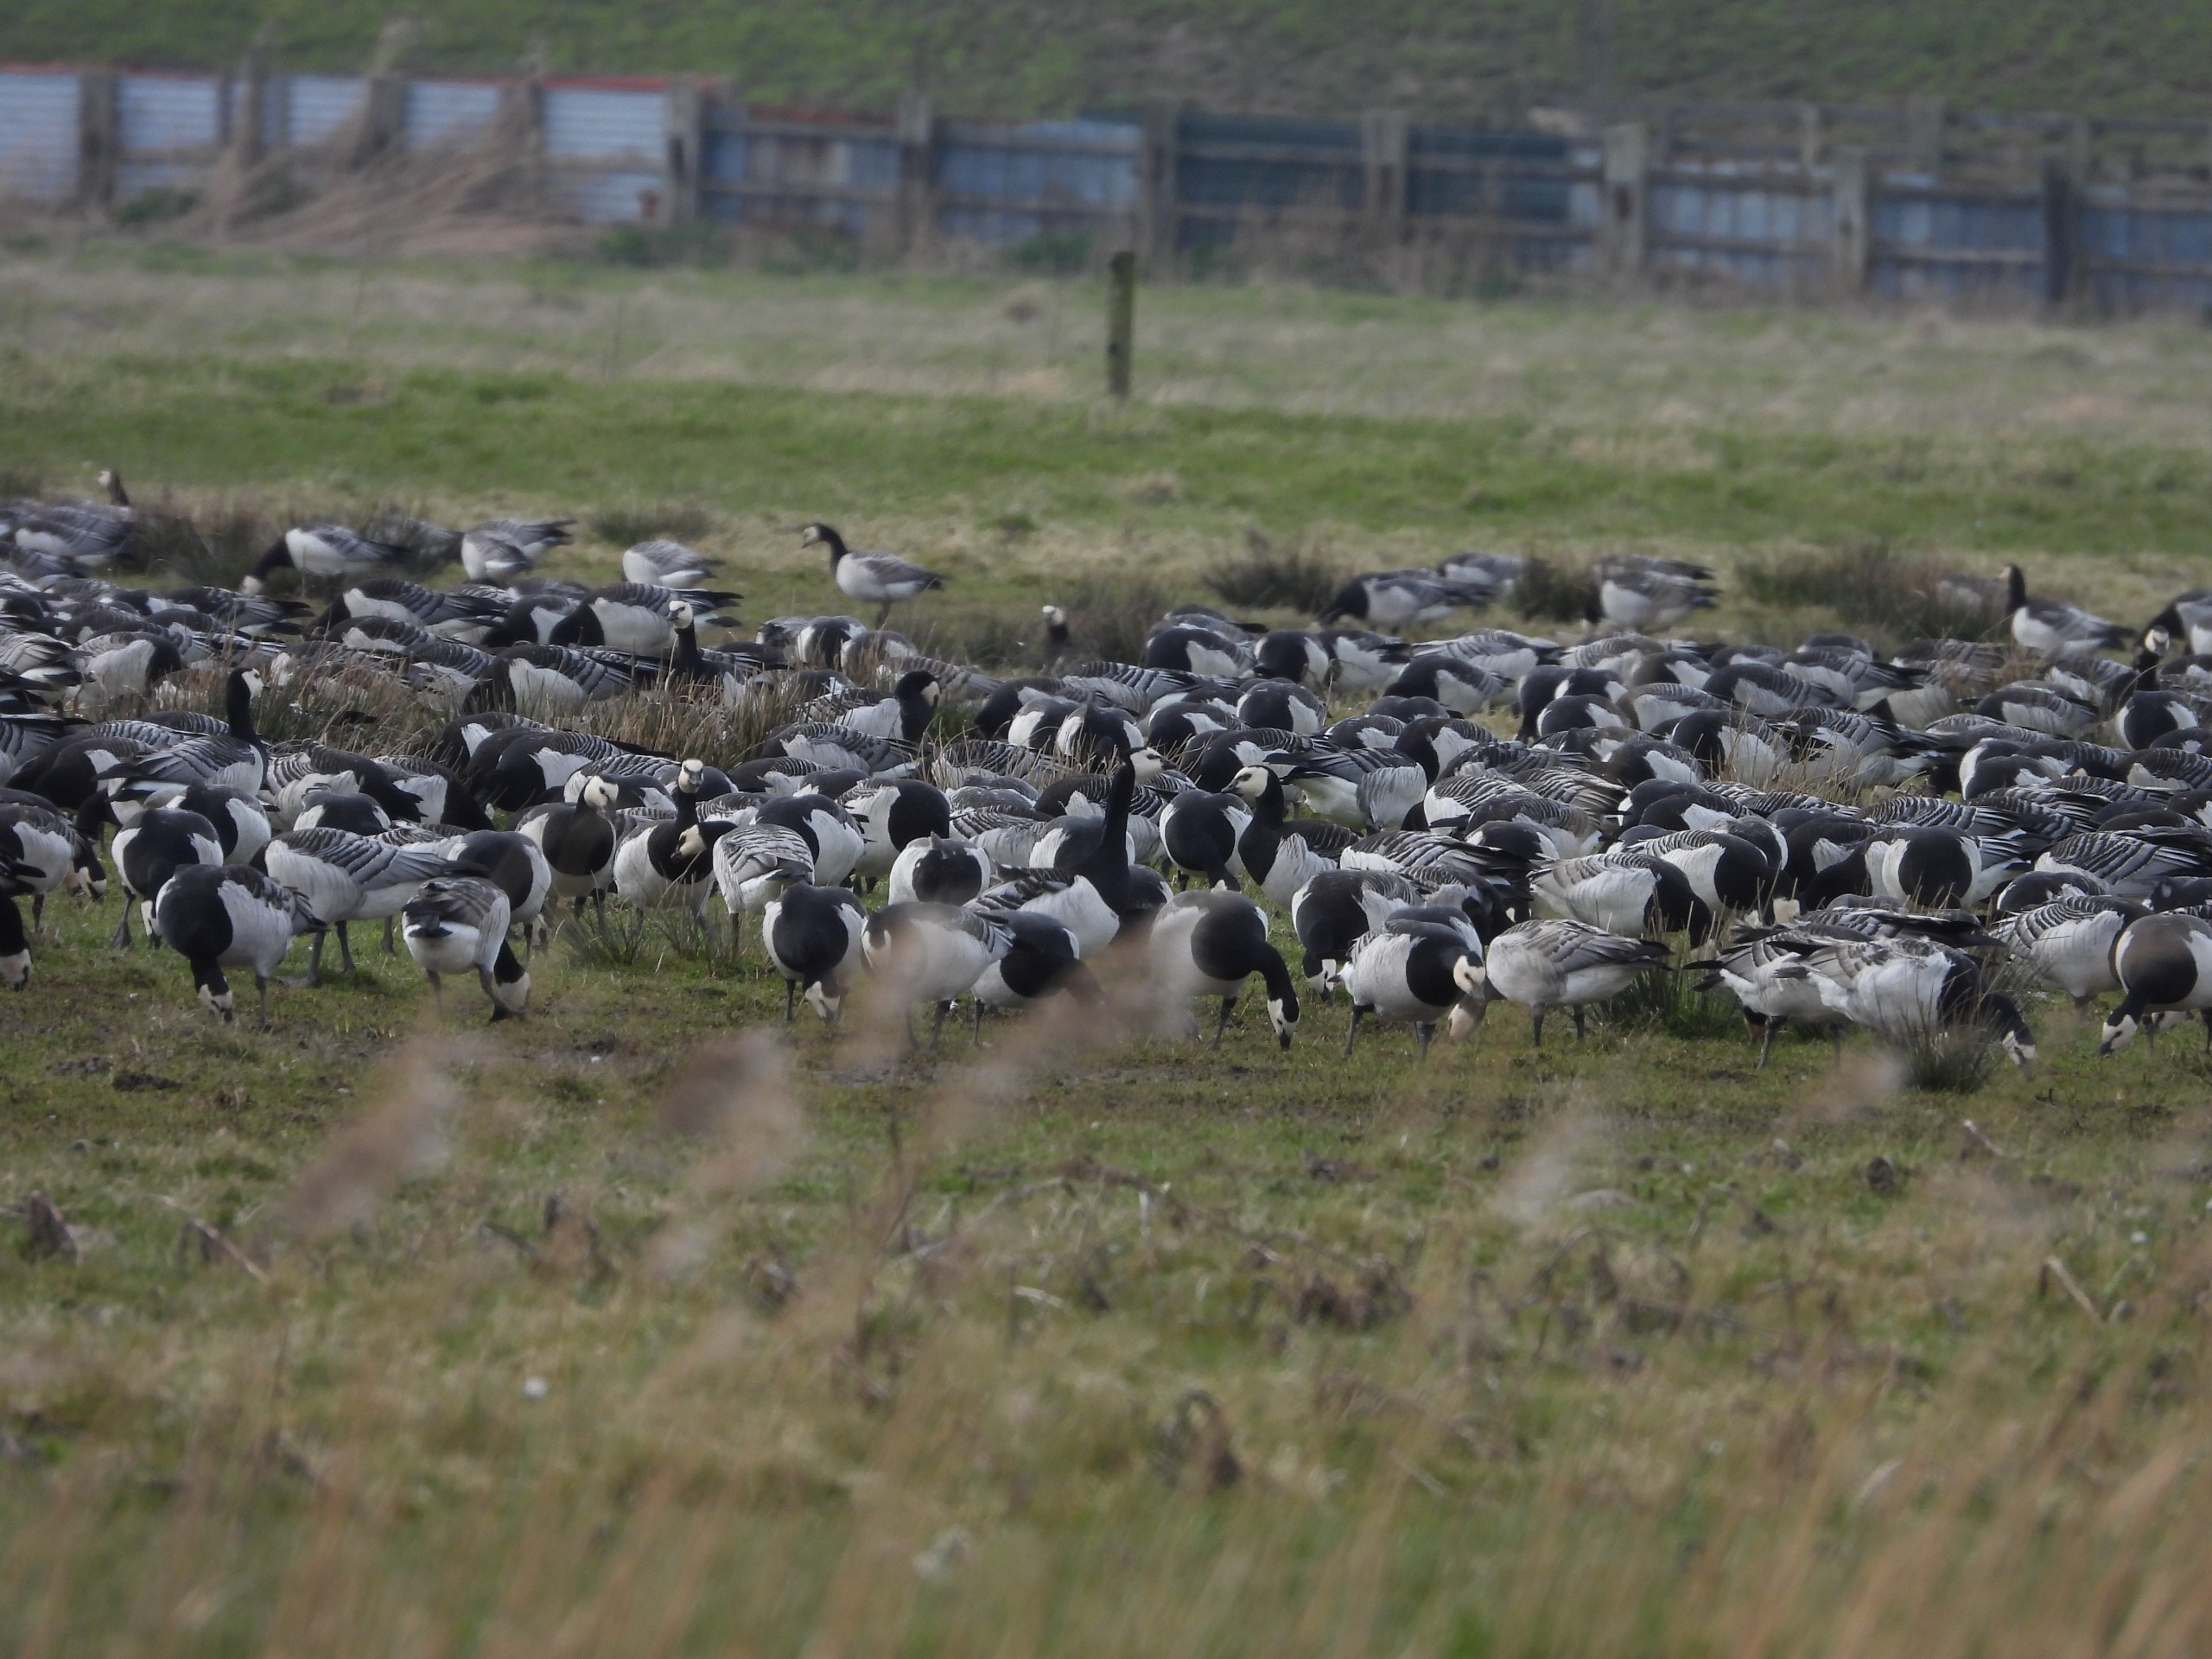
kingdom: Animalia
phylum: Chordata
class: Aves
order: Anseriformes
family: Anatidae
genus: Branta
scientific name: Branta leucopsis
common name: Bramgås
